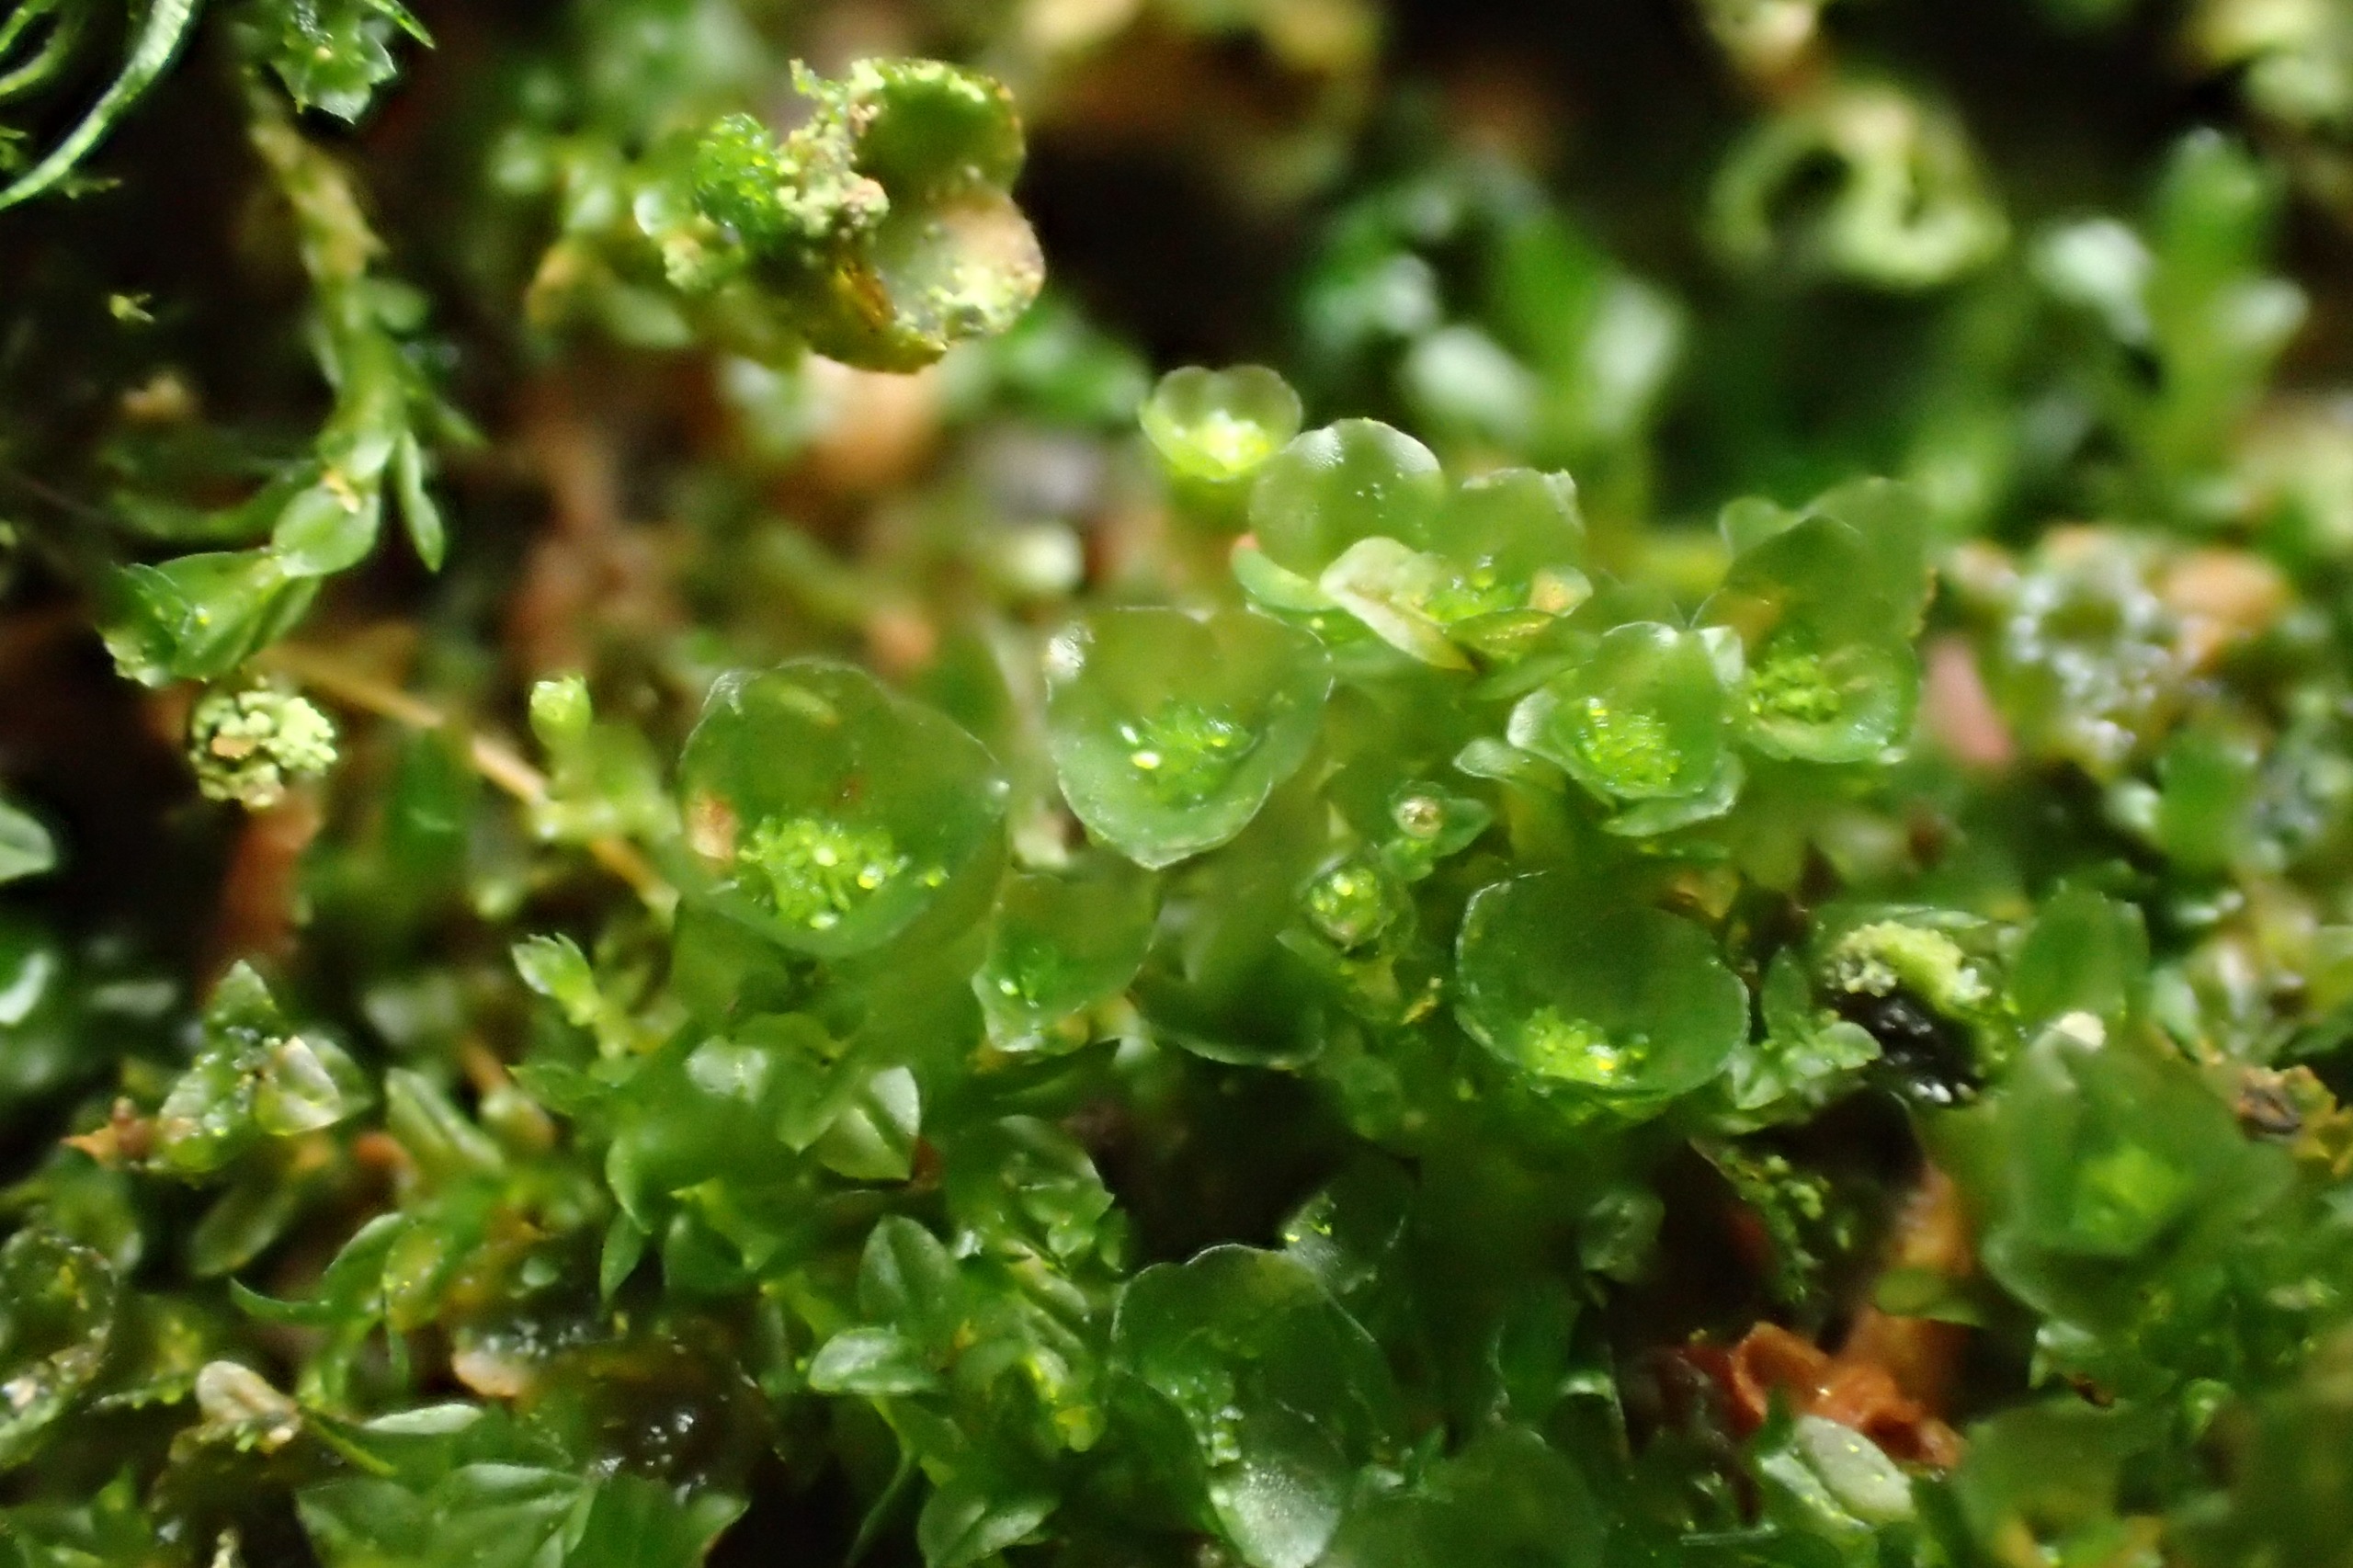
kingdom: Plantae
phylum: Bryophyta
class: Polytrichopsida
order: Tetraphidales
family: Tetraphidaceae
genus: Tetraphis
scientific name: Tetraphis pellucida
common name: Almindelig firtand
